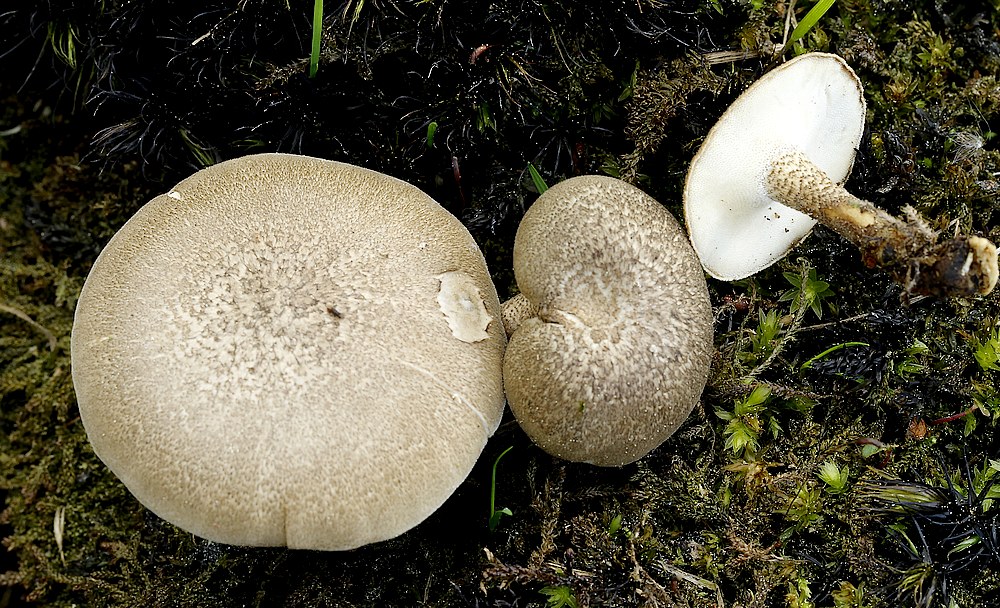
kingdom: Fungi
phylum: Basidiomycota
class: Agaricomycetes
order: Polyporales
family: Polyporaceae
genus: Lentinus
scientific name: Lentinus substrictus
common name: forårs-stilkporesvamp
